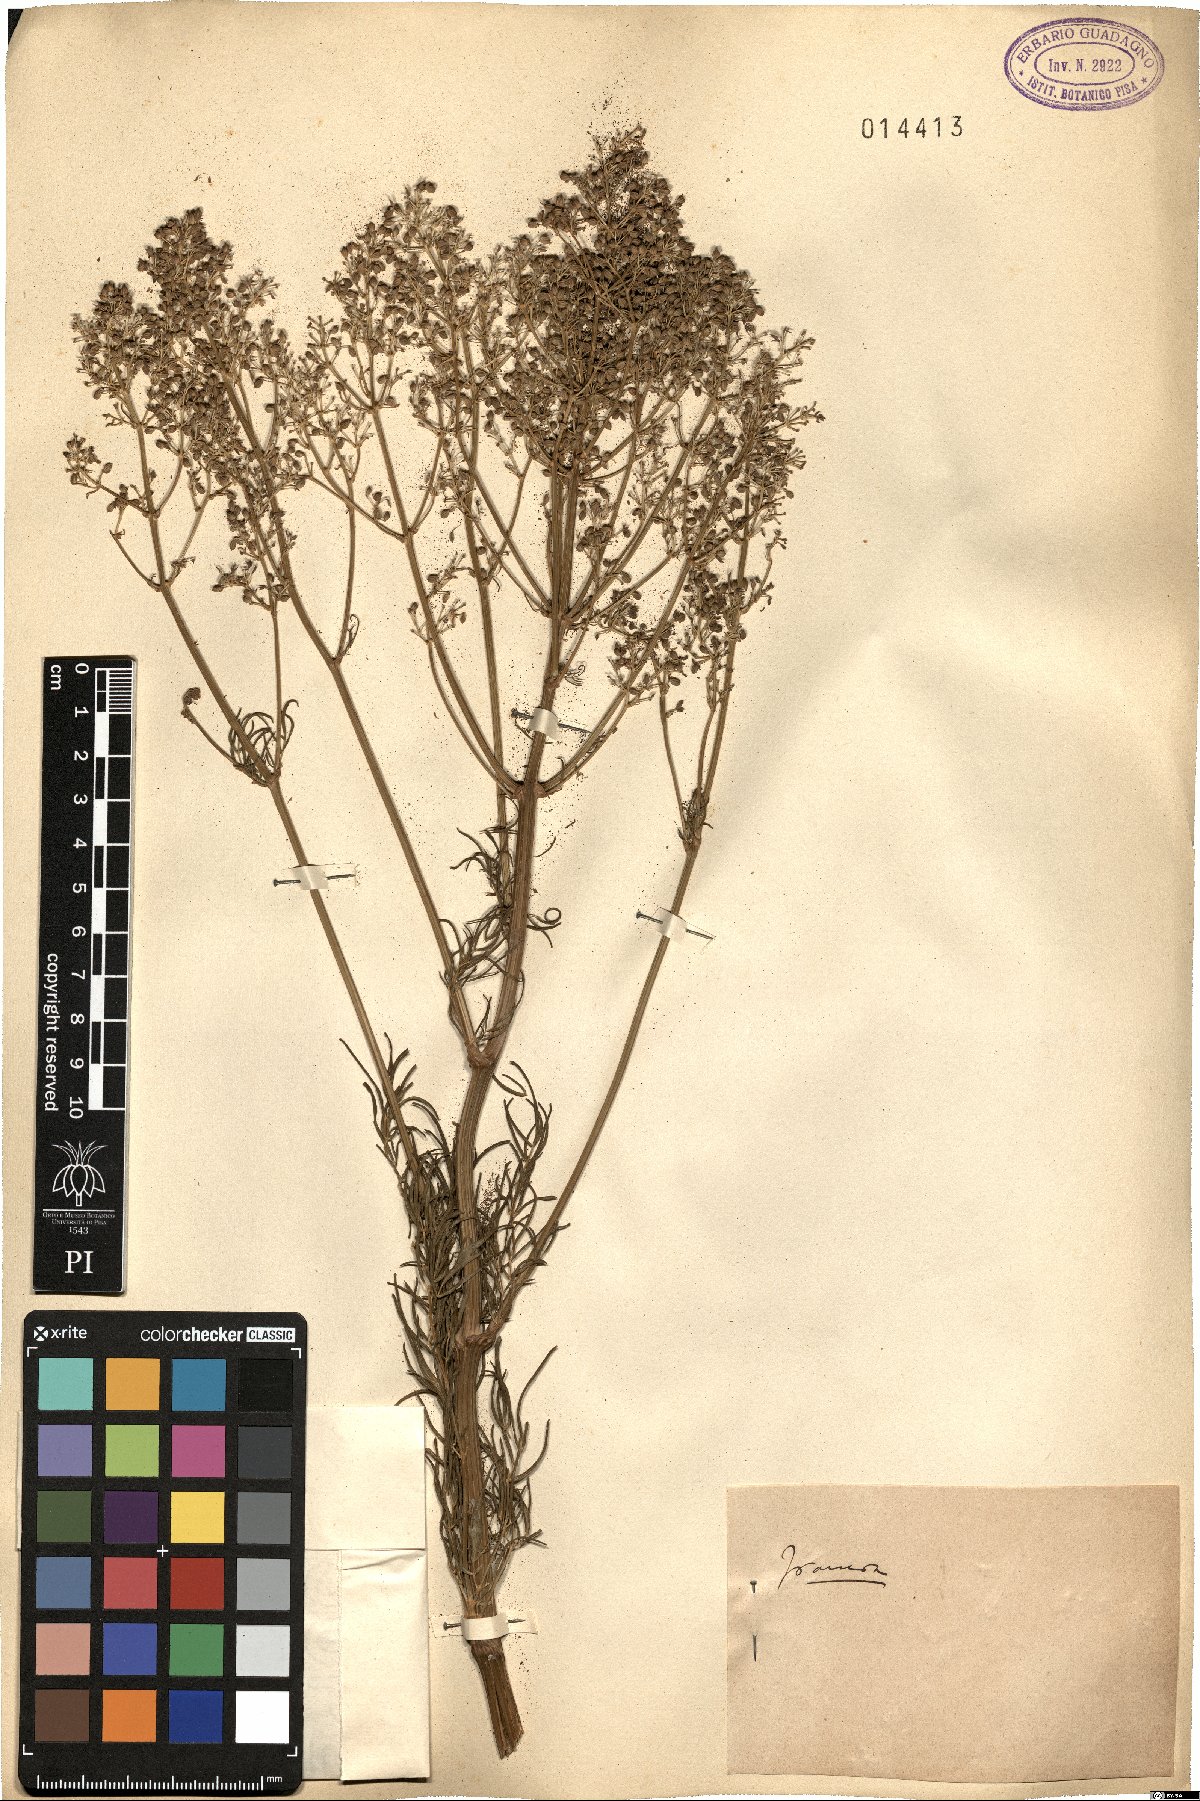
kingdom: Plantae
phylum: Tracheophyta
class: Magnoliopsida
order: Ranunculales
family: Ranunculaceae
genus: Thalictrum
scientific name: Thalictrum
